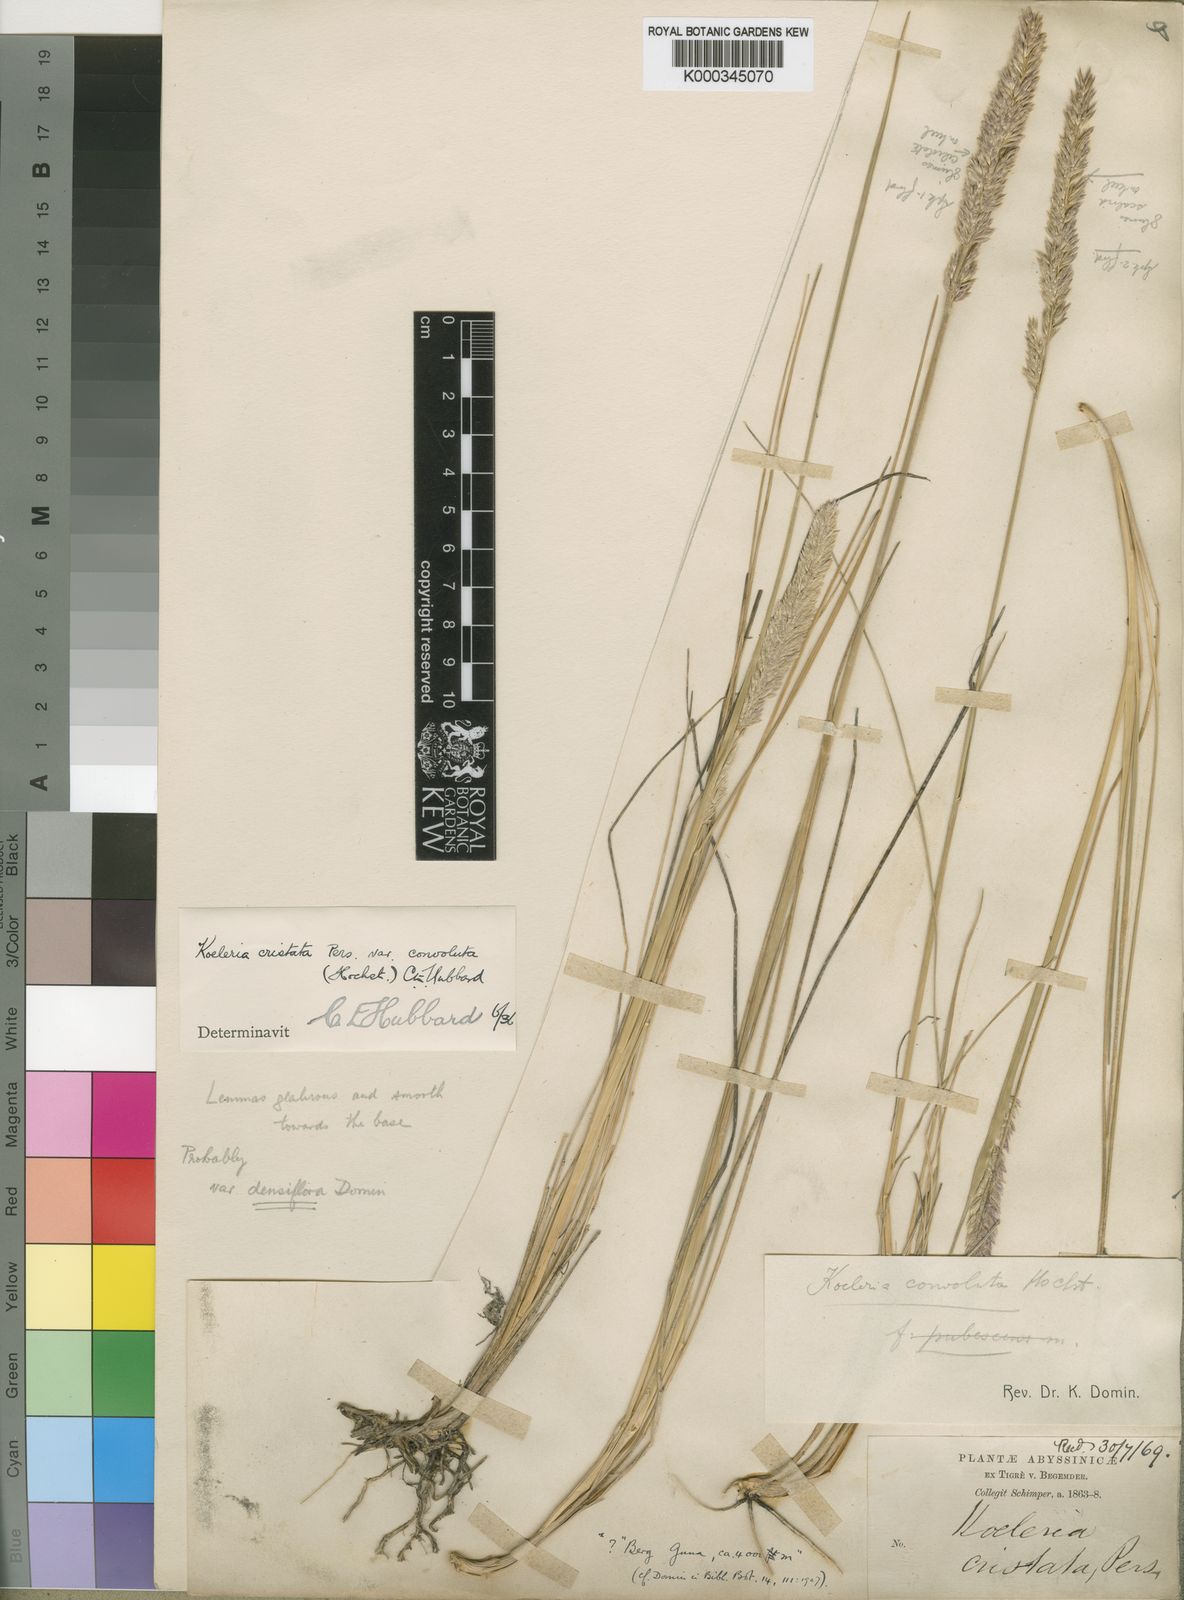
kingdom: Plantae
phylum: Tracheophyta
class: Liliopsida
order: Poales
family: Poaceae
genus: Koeleria
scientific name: Koeleria capensis
